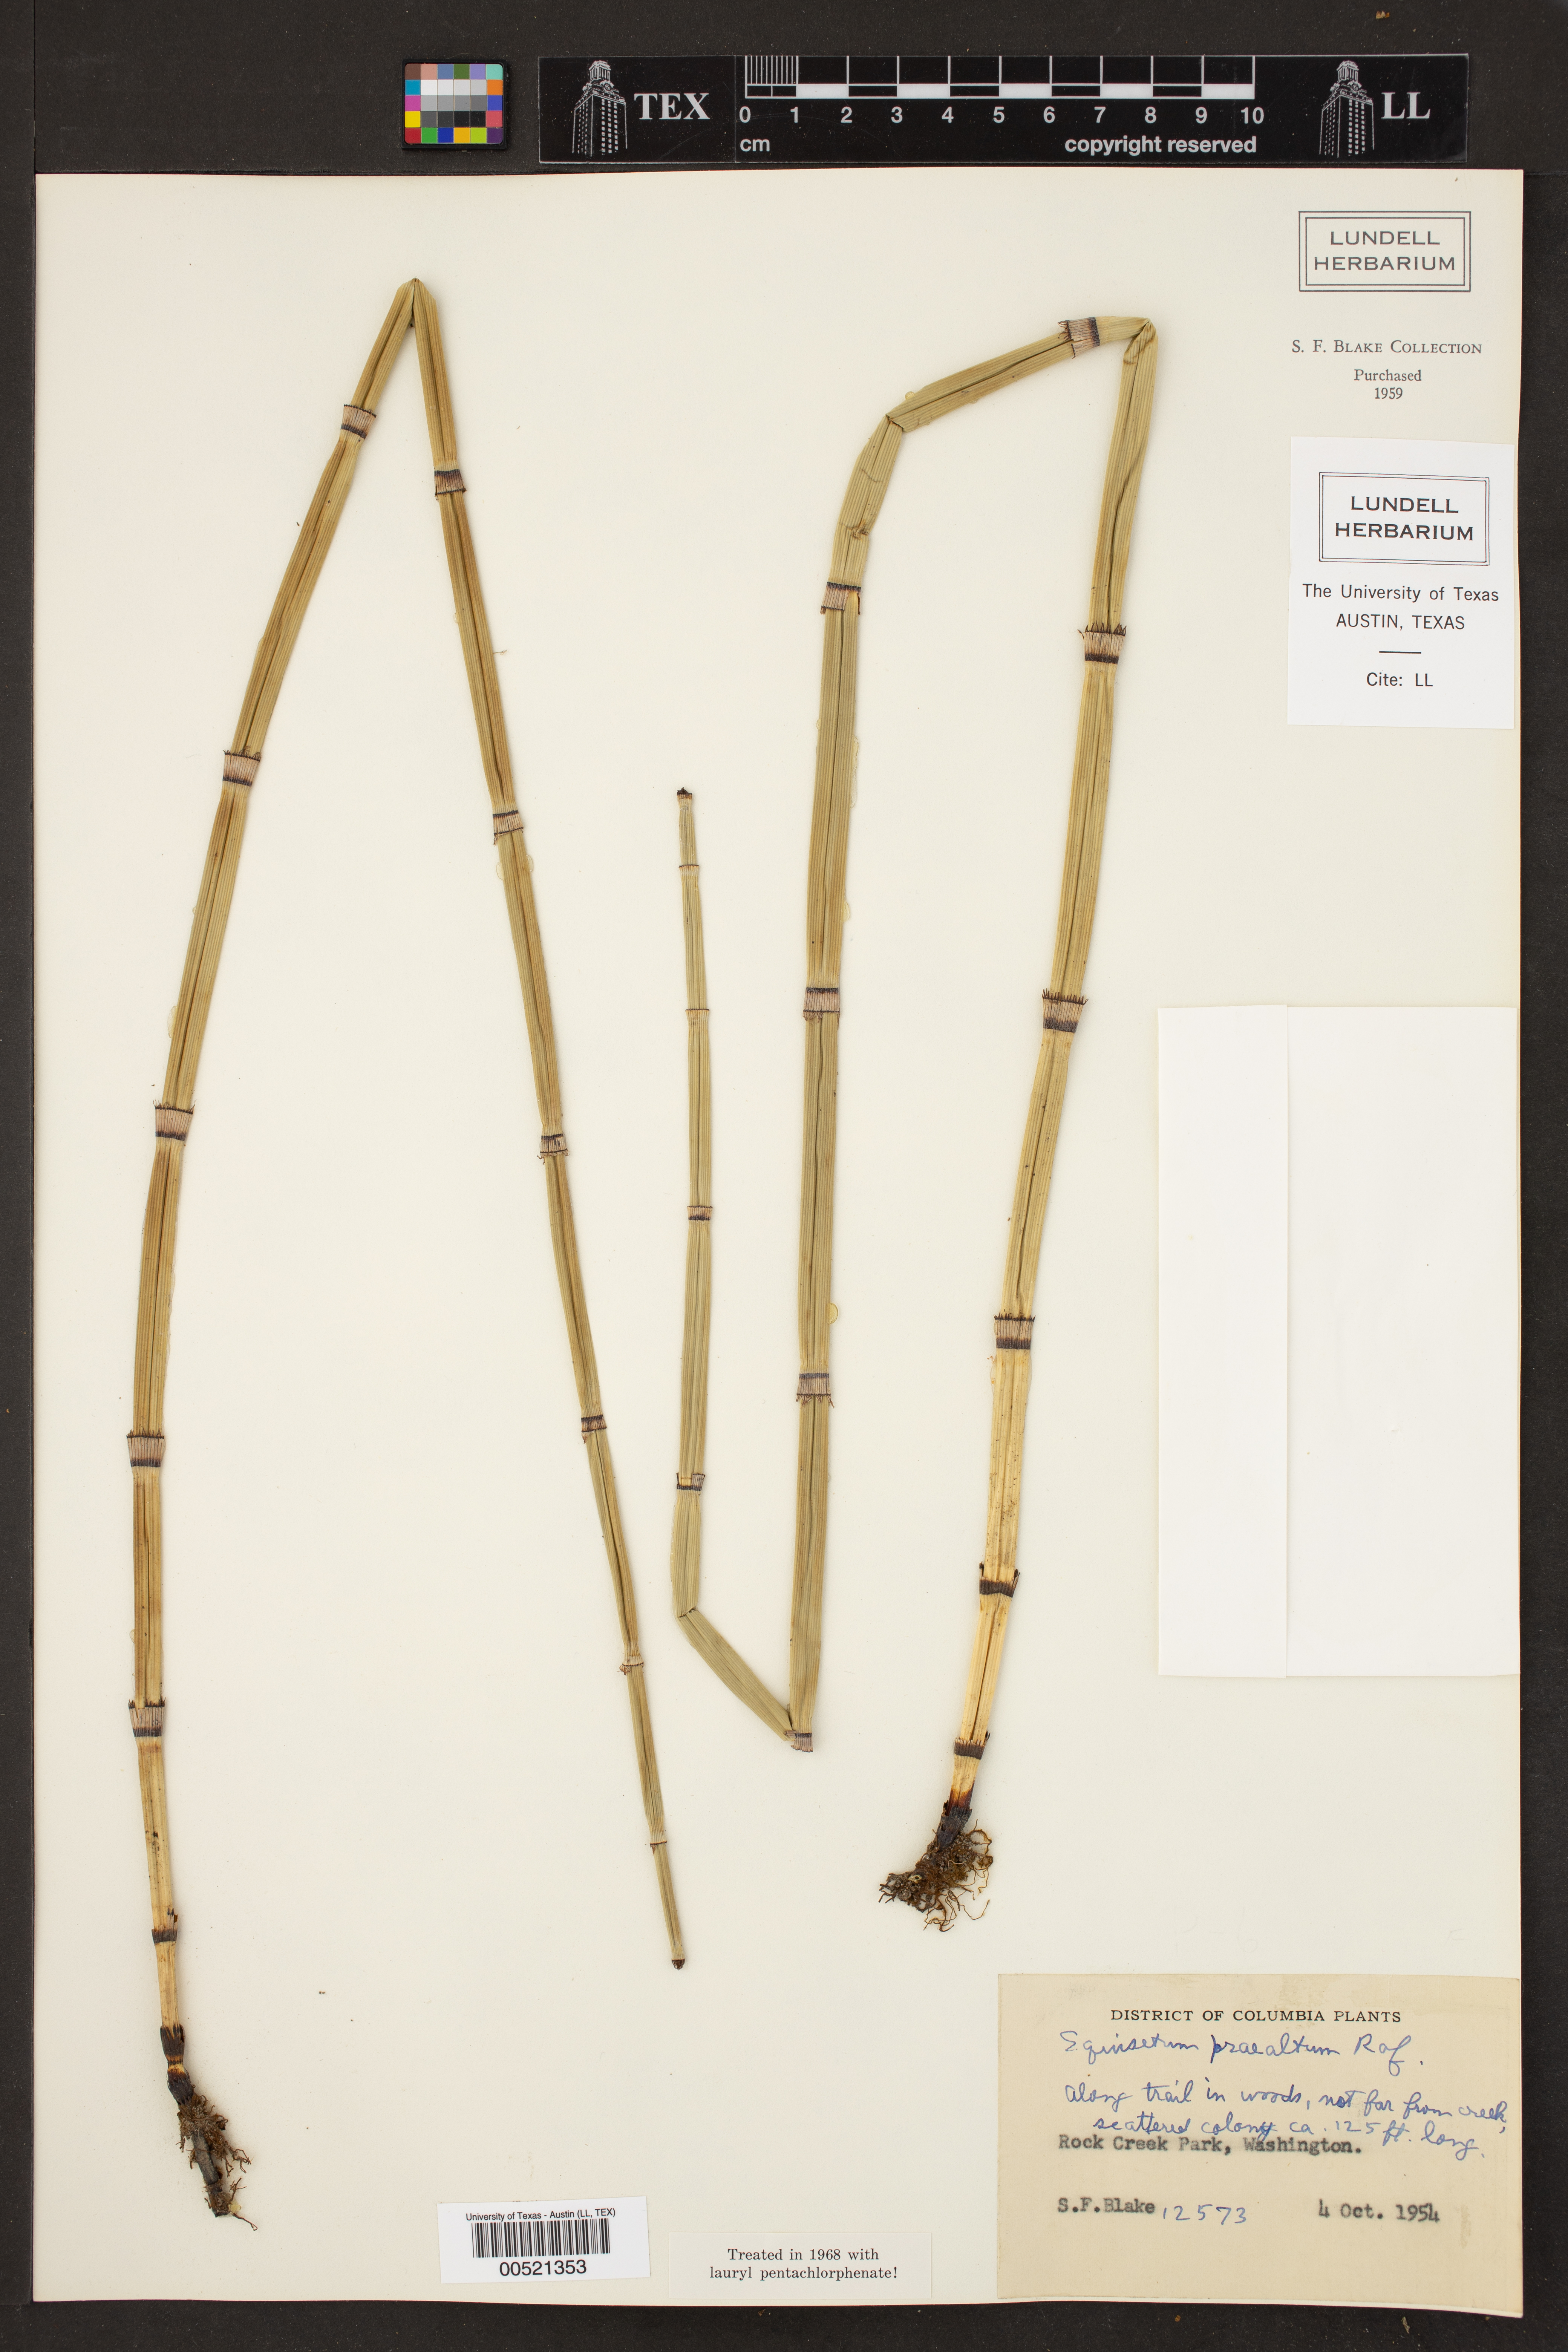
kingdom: Plantae
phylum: Tracheophyta
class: Polypodiopsida
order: Equisetales
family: Equisetaceae
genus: Equisetum
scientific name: Equisetum praealtum
